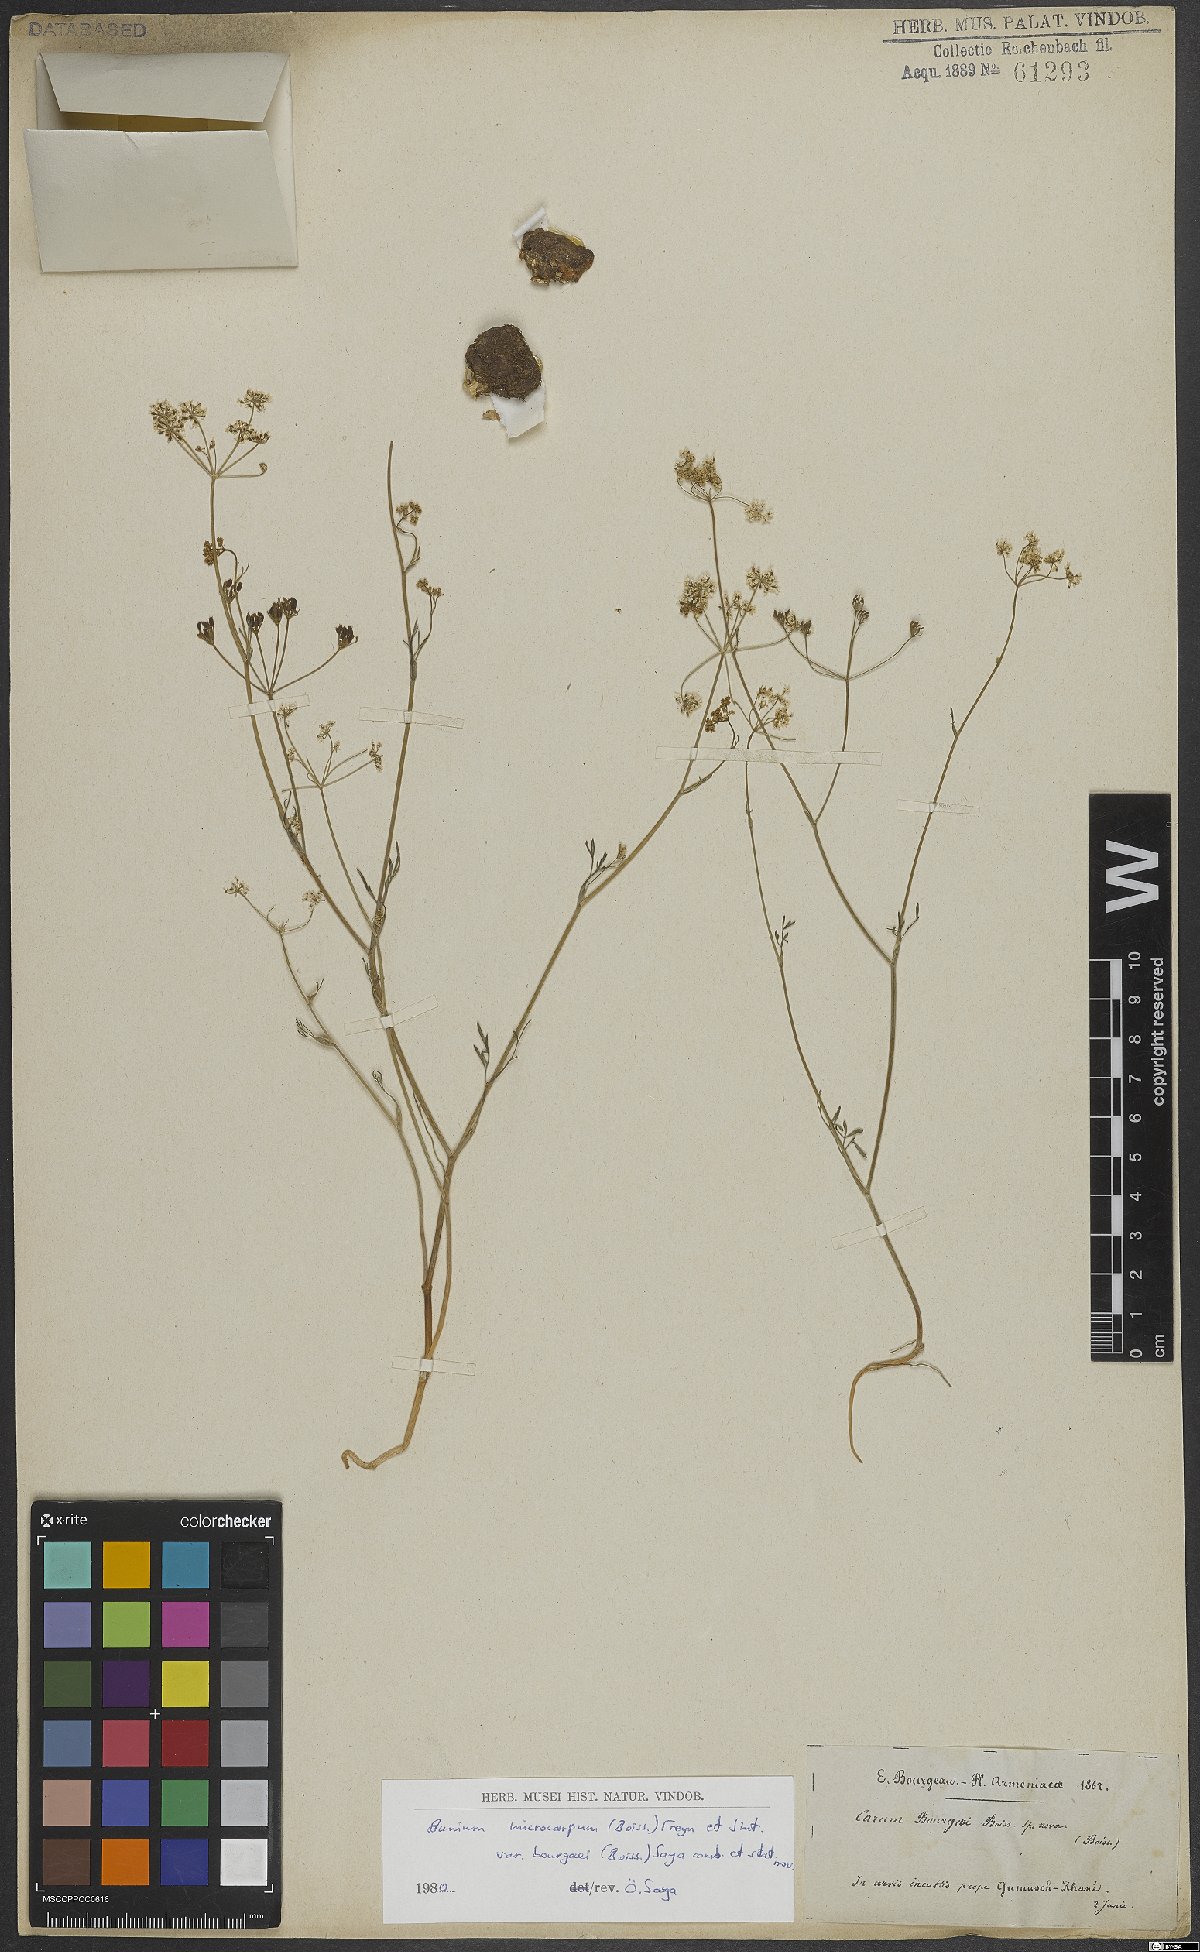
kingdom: Plantae
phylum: Tracheophyta
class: Magnoliopsida
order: Apiales
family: Apiaceae
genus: Bunium
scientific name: Bunium
